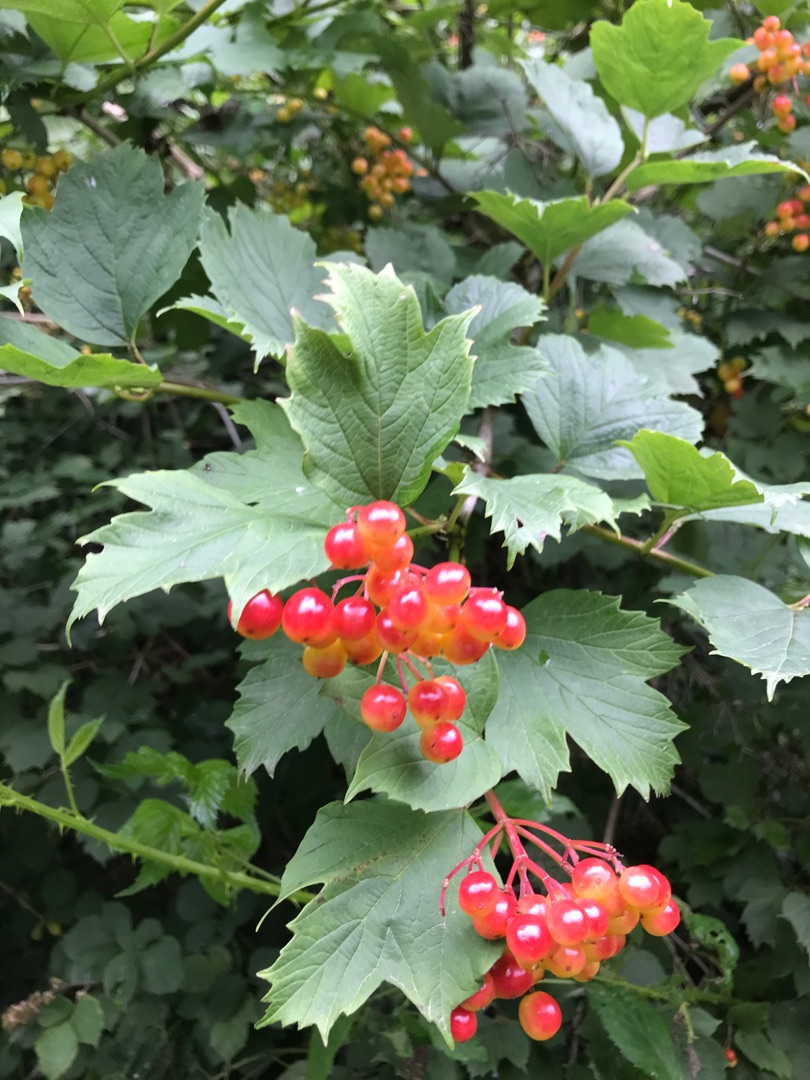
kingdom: Plantae
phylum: Tracheophyta
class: Magnoliopsida
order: Dipsacales
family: Viburnaceae
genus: Viburnum
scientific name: Viburnum opulus
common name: Kvalkved
